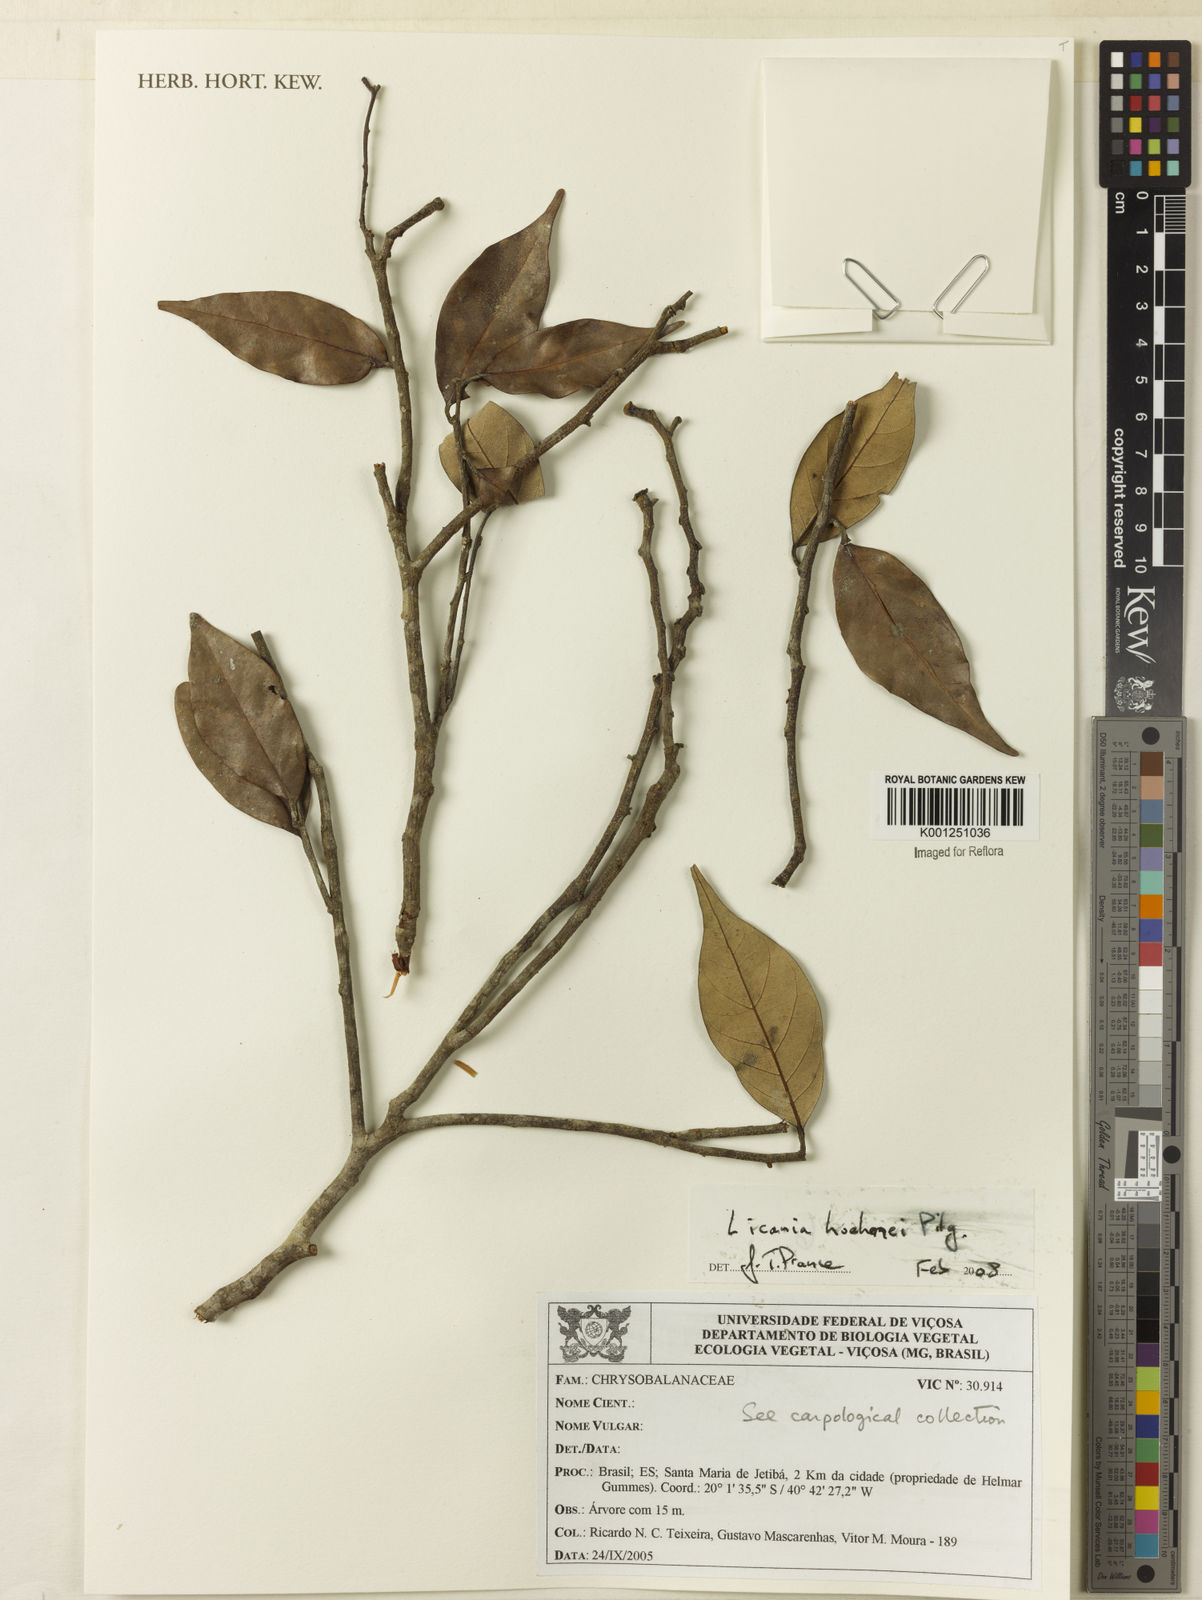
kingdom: Plantae
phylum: Tracheophyta
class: Magnoliopsida
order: Malpighiales
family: Chrysobalanaceae
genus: Licania
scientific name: Licania areolata
